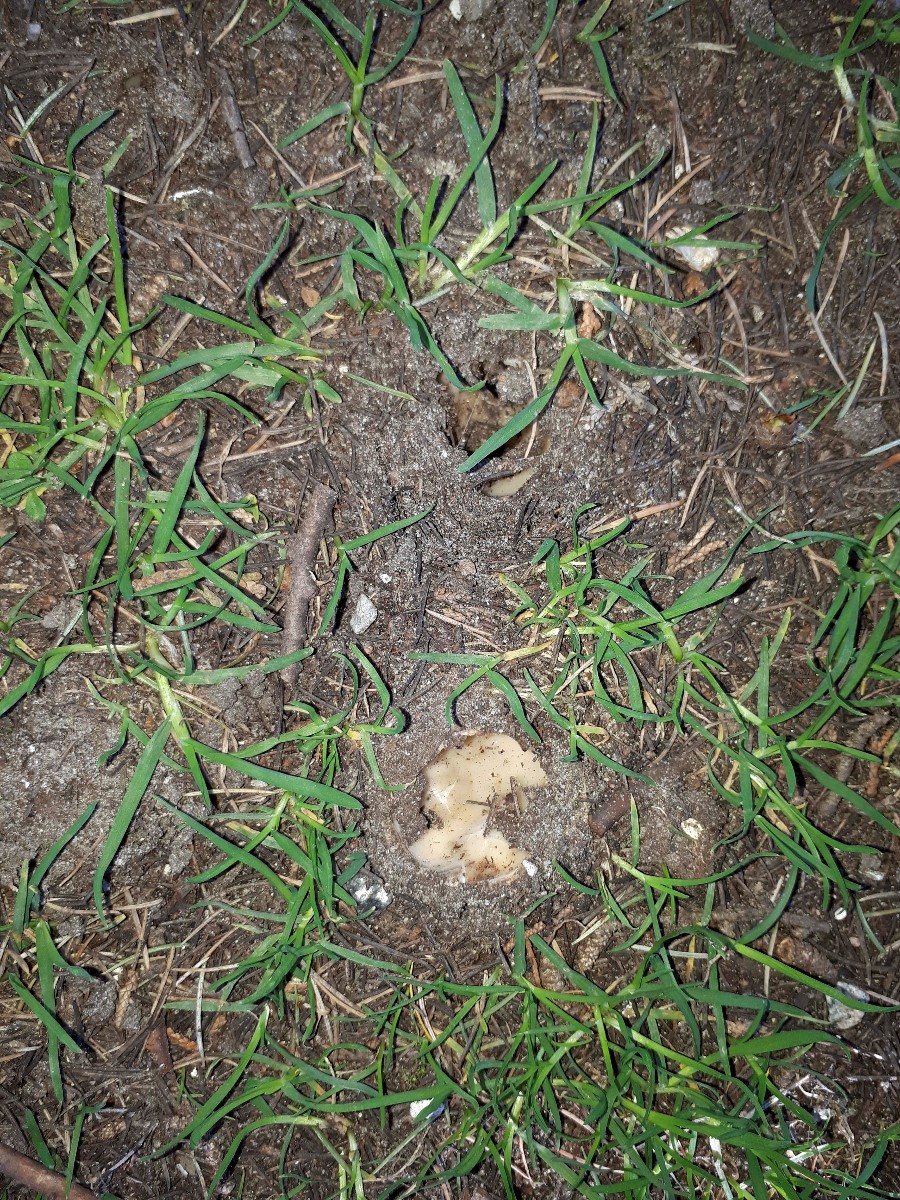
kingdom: Fungi
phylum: Ascomycota
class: Pezizomycetes
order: Pezizales
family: Pyronemataceae
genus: Geopora
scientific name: Geopora sumneriana
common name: vår-jordbæger
